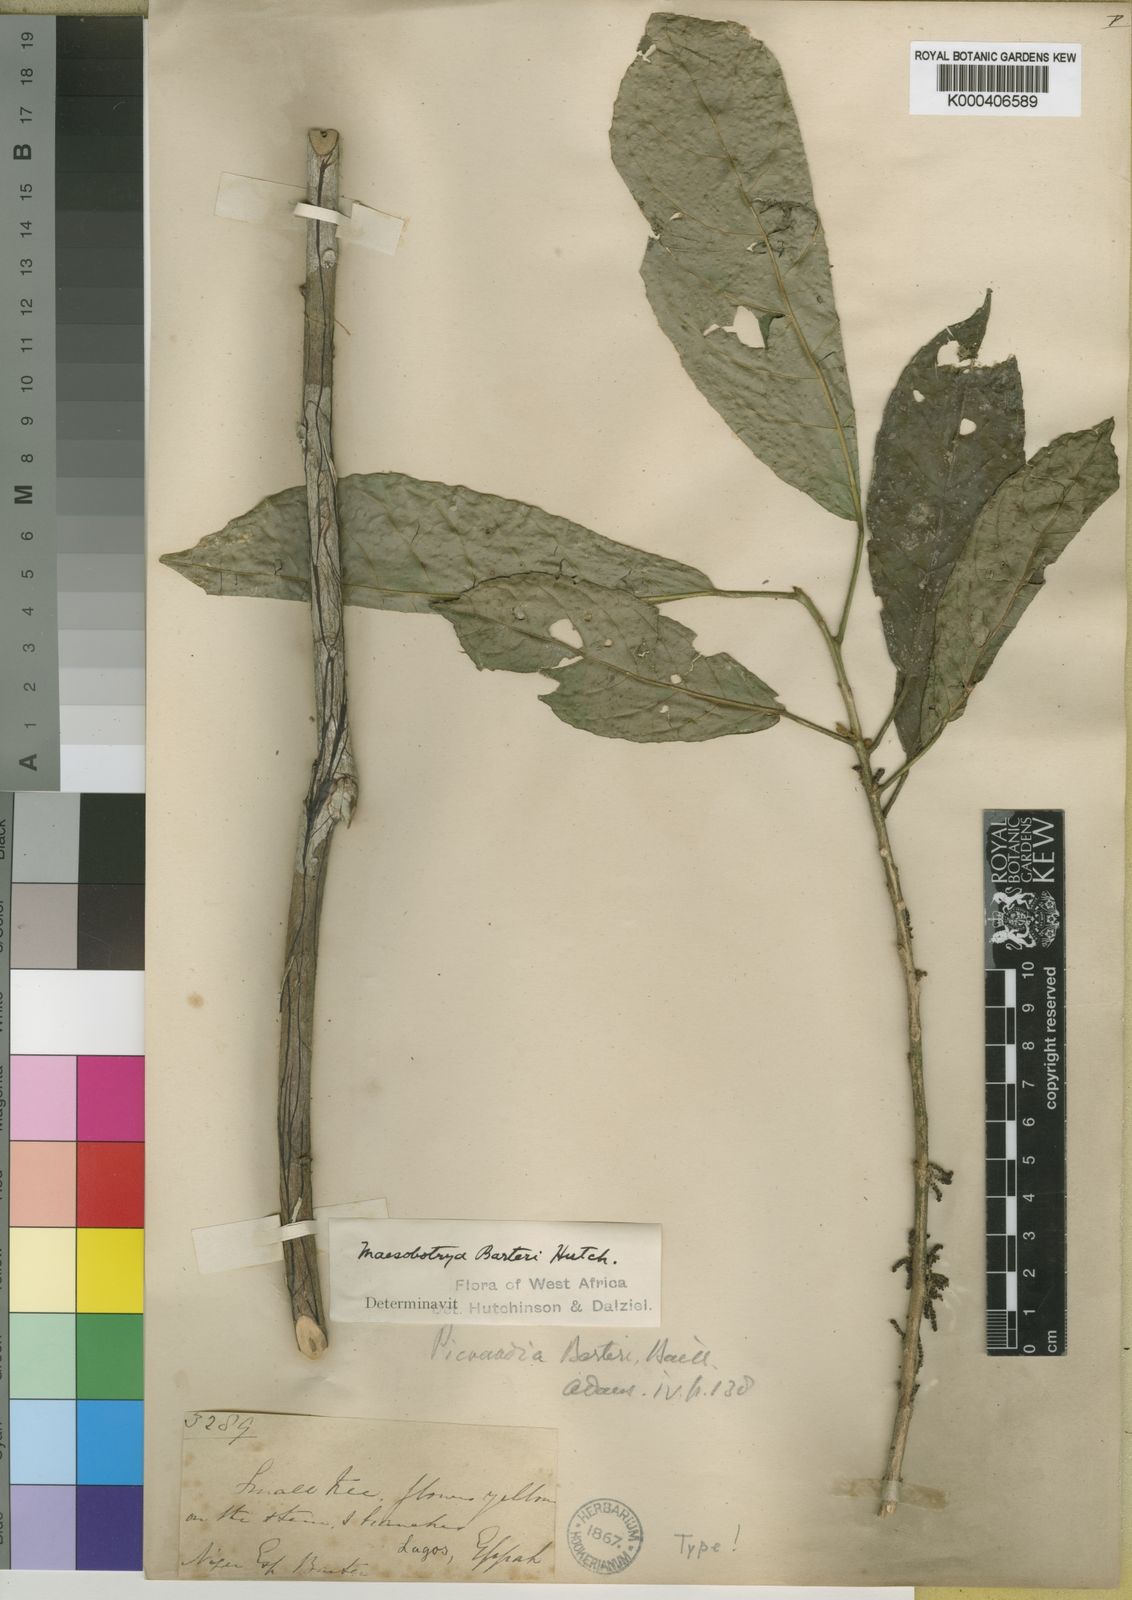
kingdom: Plantae
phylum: Tracheophyta
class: Magnoliopsida
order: Malpighiales
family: Phyllanthaceae
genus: Maesobotrya
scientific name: Maesobotrya barteri
